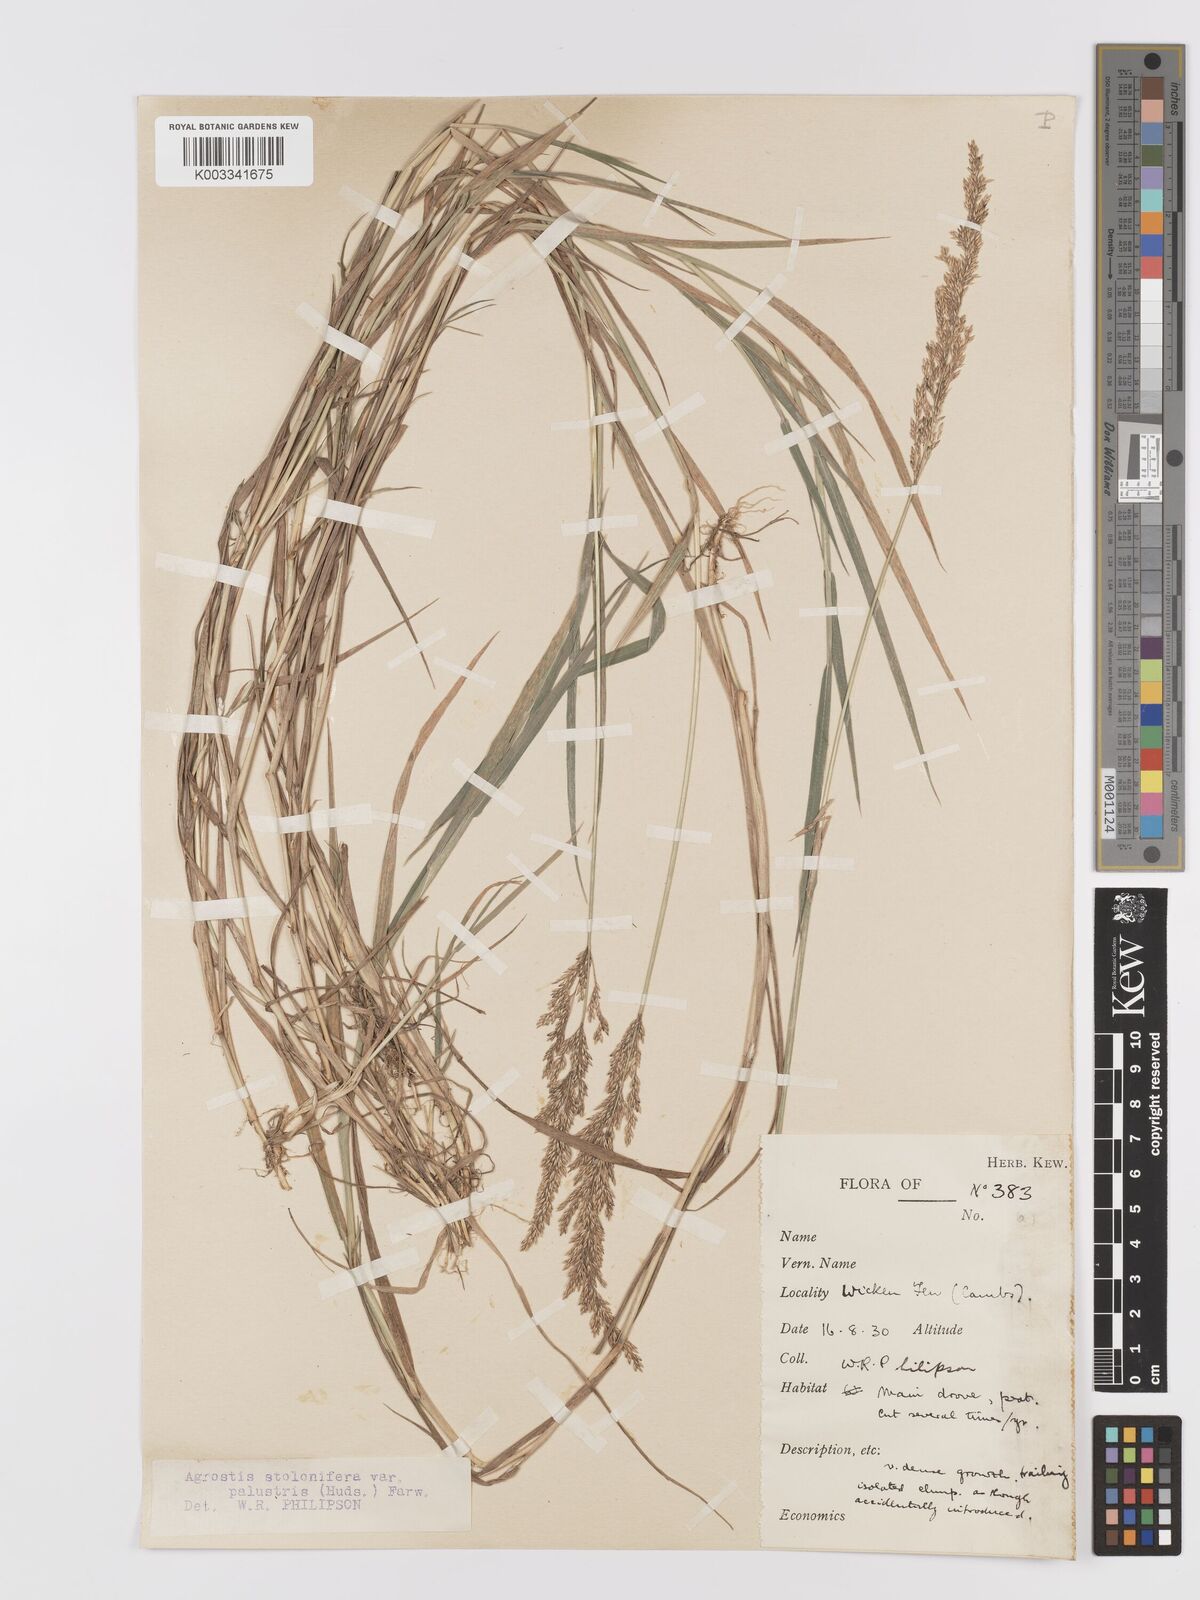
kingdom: Plantae
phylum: Tracheophyta
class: Liliopsida
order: Poales
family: Poaceae
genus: Agrostis
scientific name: Agrostis stolonifera
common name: Creeping bentgrass
